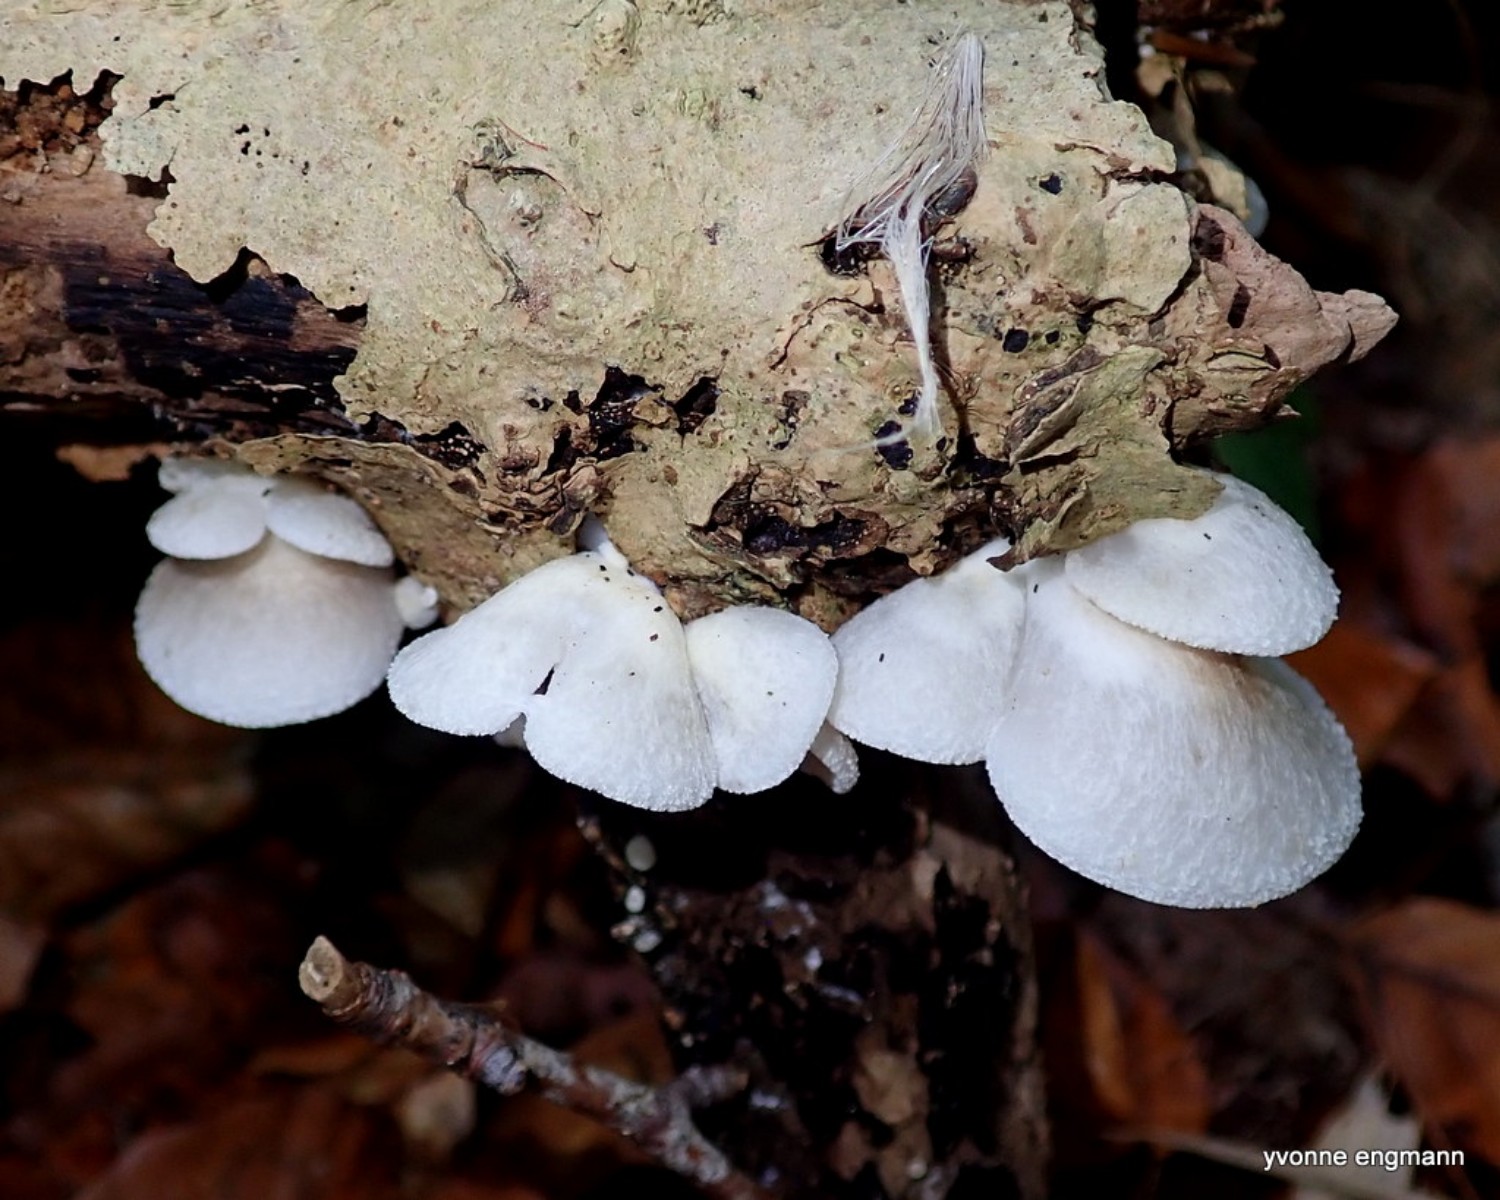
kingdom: Fungi
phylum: Basidiomycota
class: Agaricomycetes
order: Agaricales
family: Crepidotaceae
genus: Crepidotus
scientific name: Crepidotus mollis
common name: blød muslingesvamp
